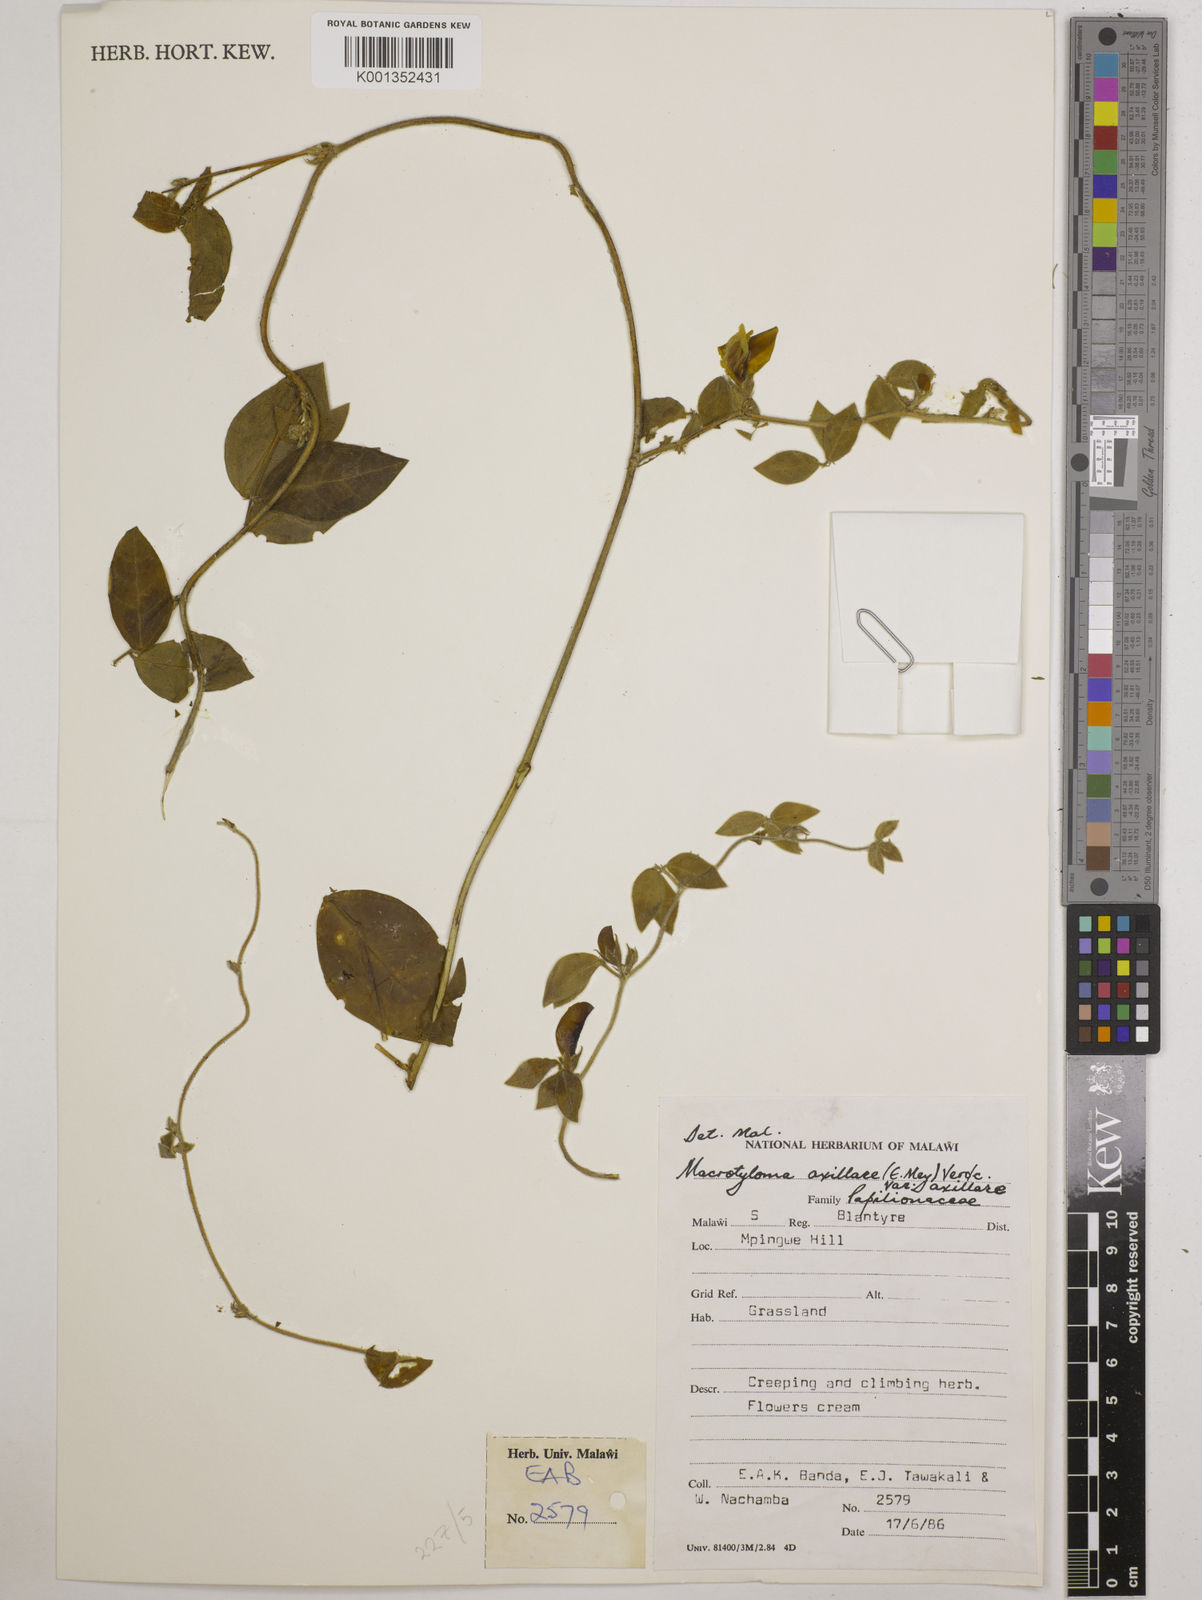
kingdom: Plantae
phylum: Tracheophyta
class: Magnoliopsida
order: Fabales
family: Fabaceae
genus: Macrotyloma
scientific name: Macrotyloma axillare
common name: Perennial horsegram
